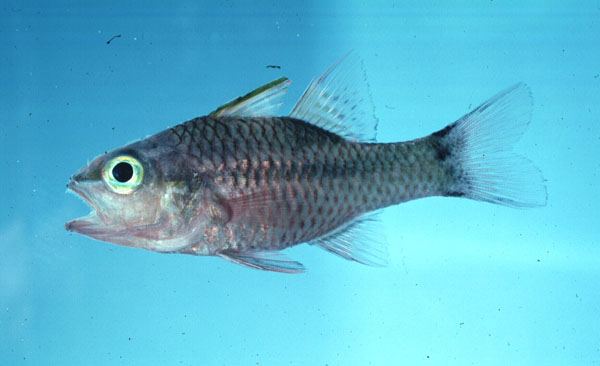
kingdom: Animalia
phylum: Chordata
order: Perciformes
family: Apogonidae
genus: Pristiapogon
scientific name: Pristiapogon kallopterus
